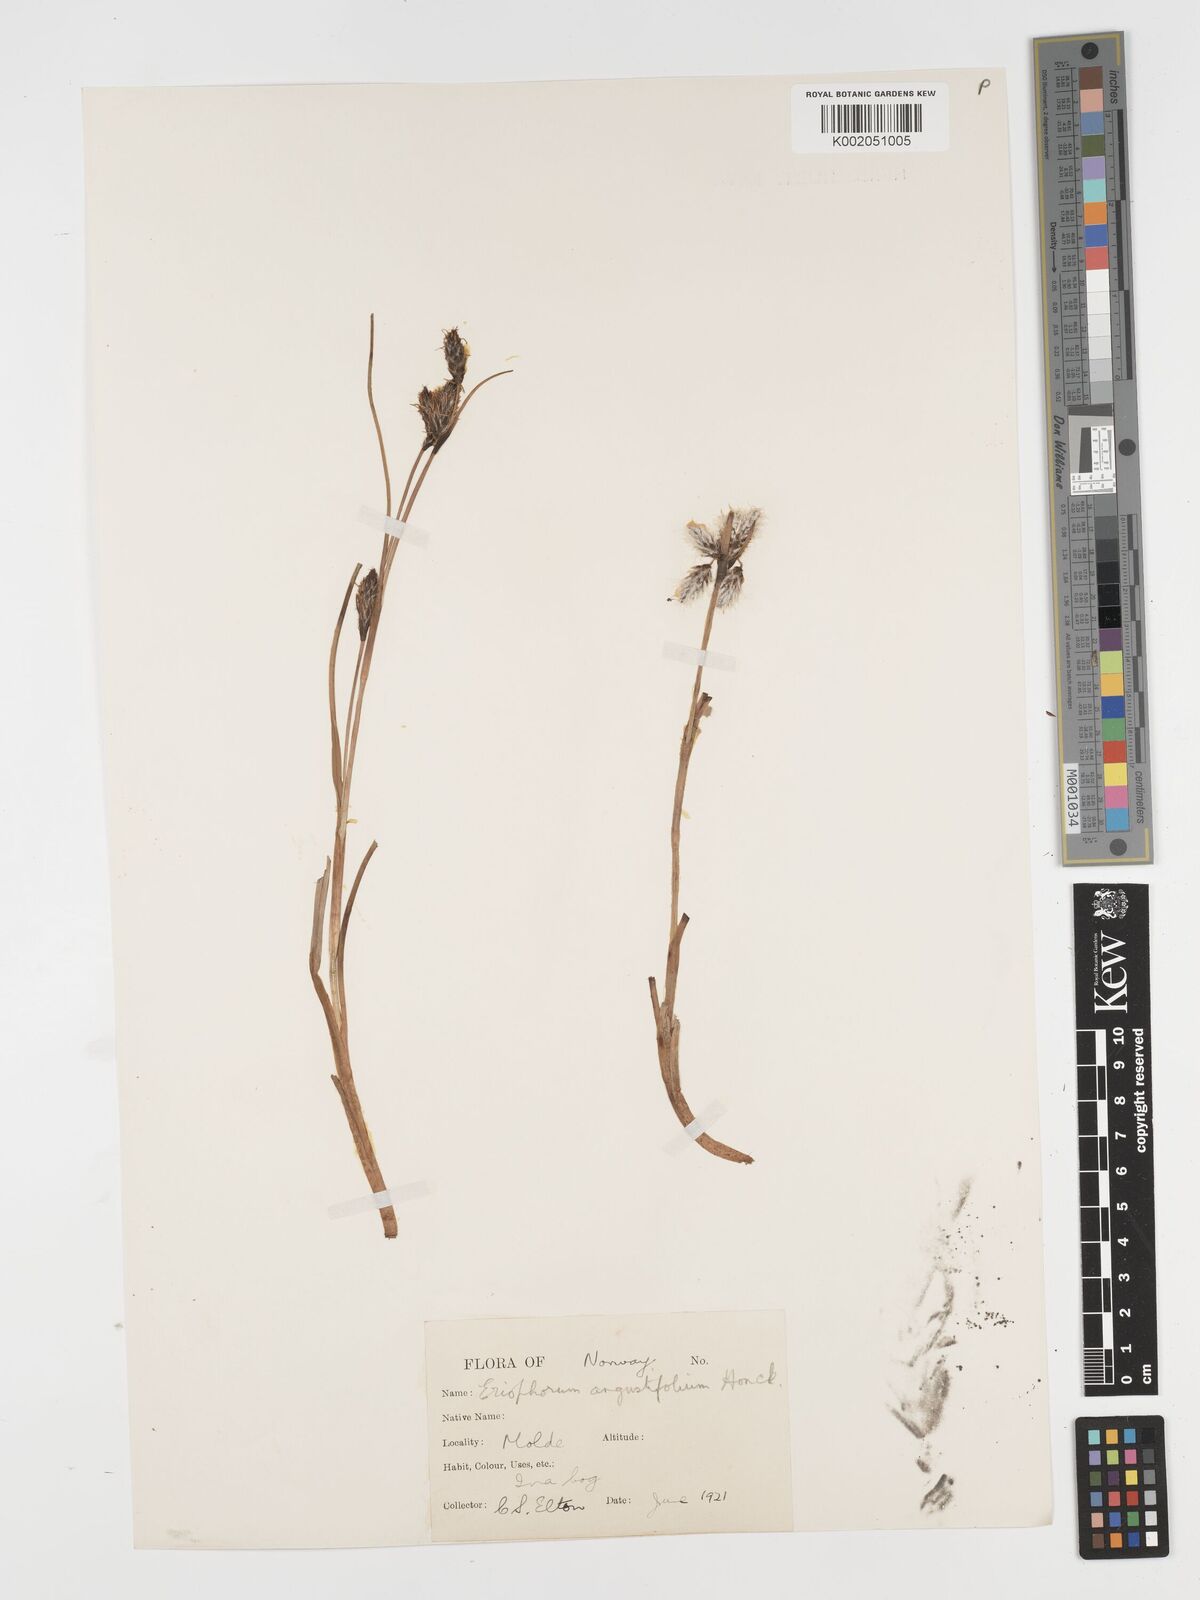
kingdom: Plantae
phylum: Tracheophyta
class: Liliopsida
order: Poales
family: Cyperaceae
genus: Eriophorum
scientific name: Eriophorum angustifolium
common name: Common cottongrass
